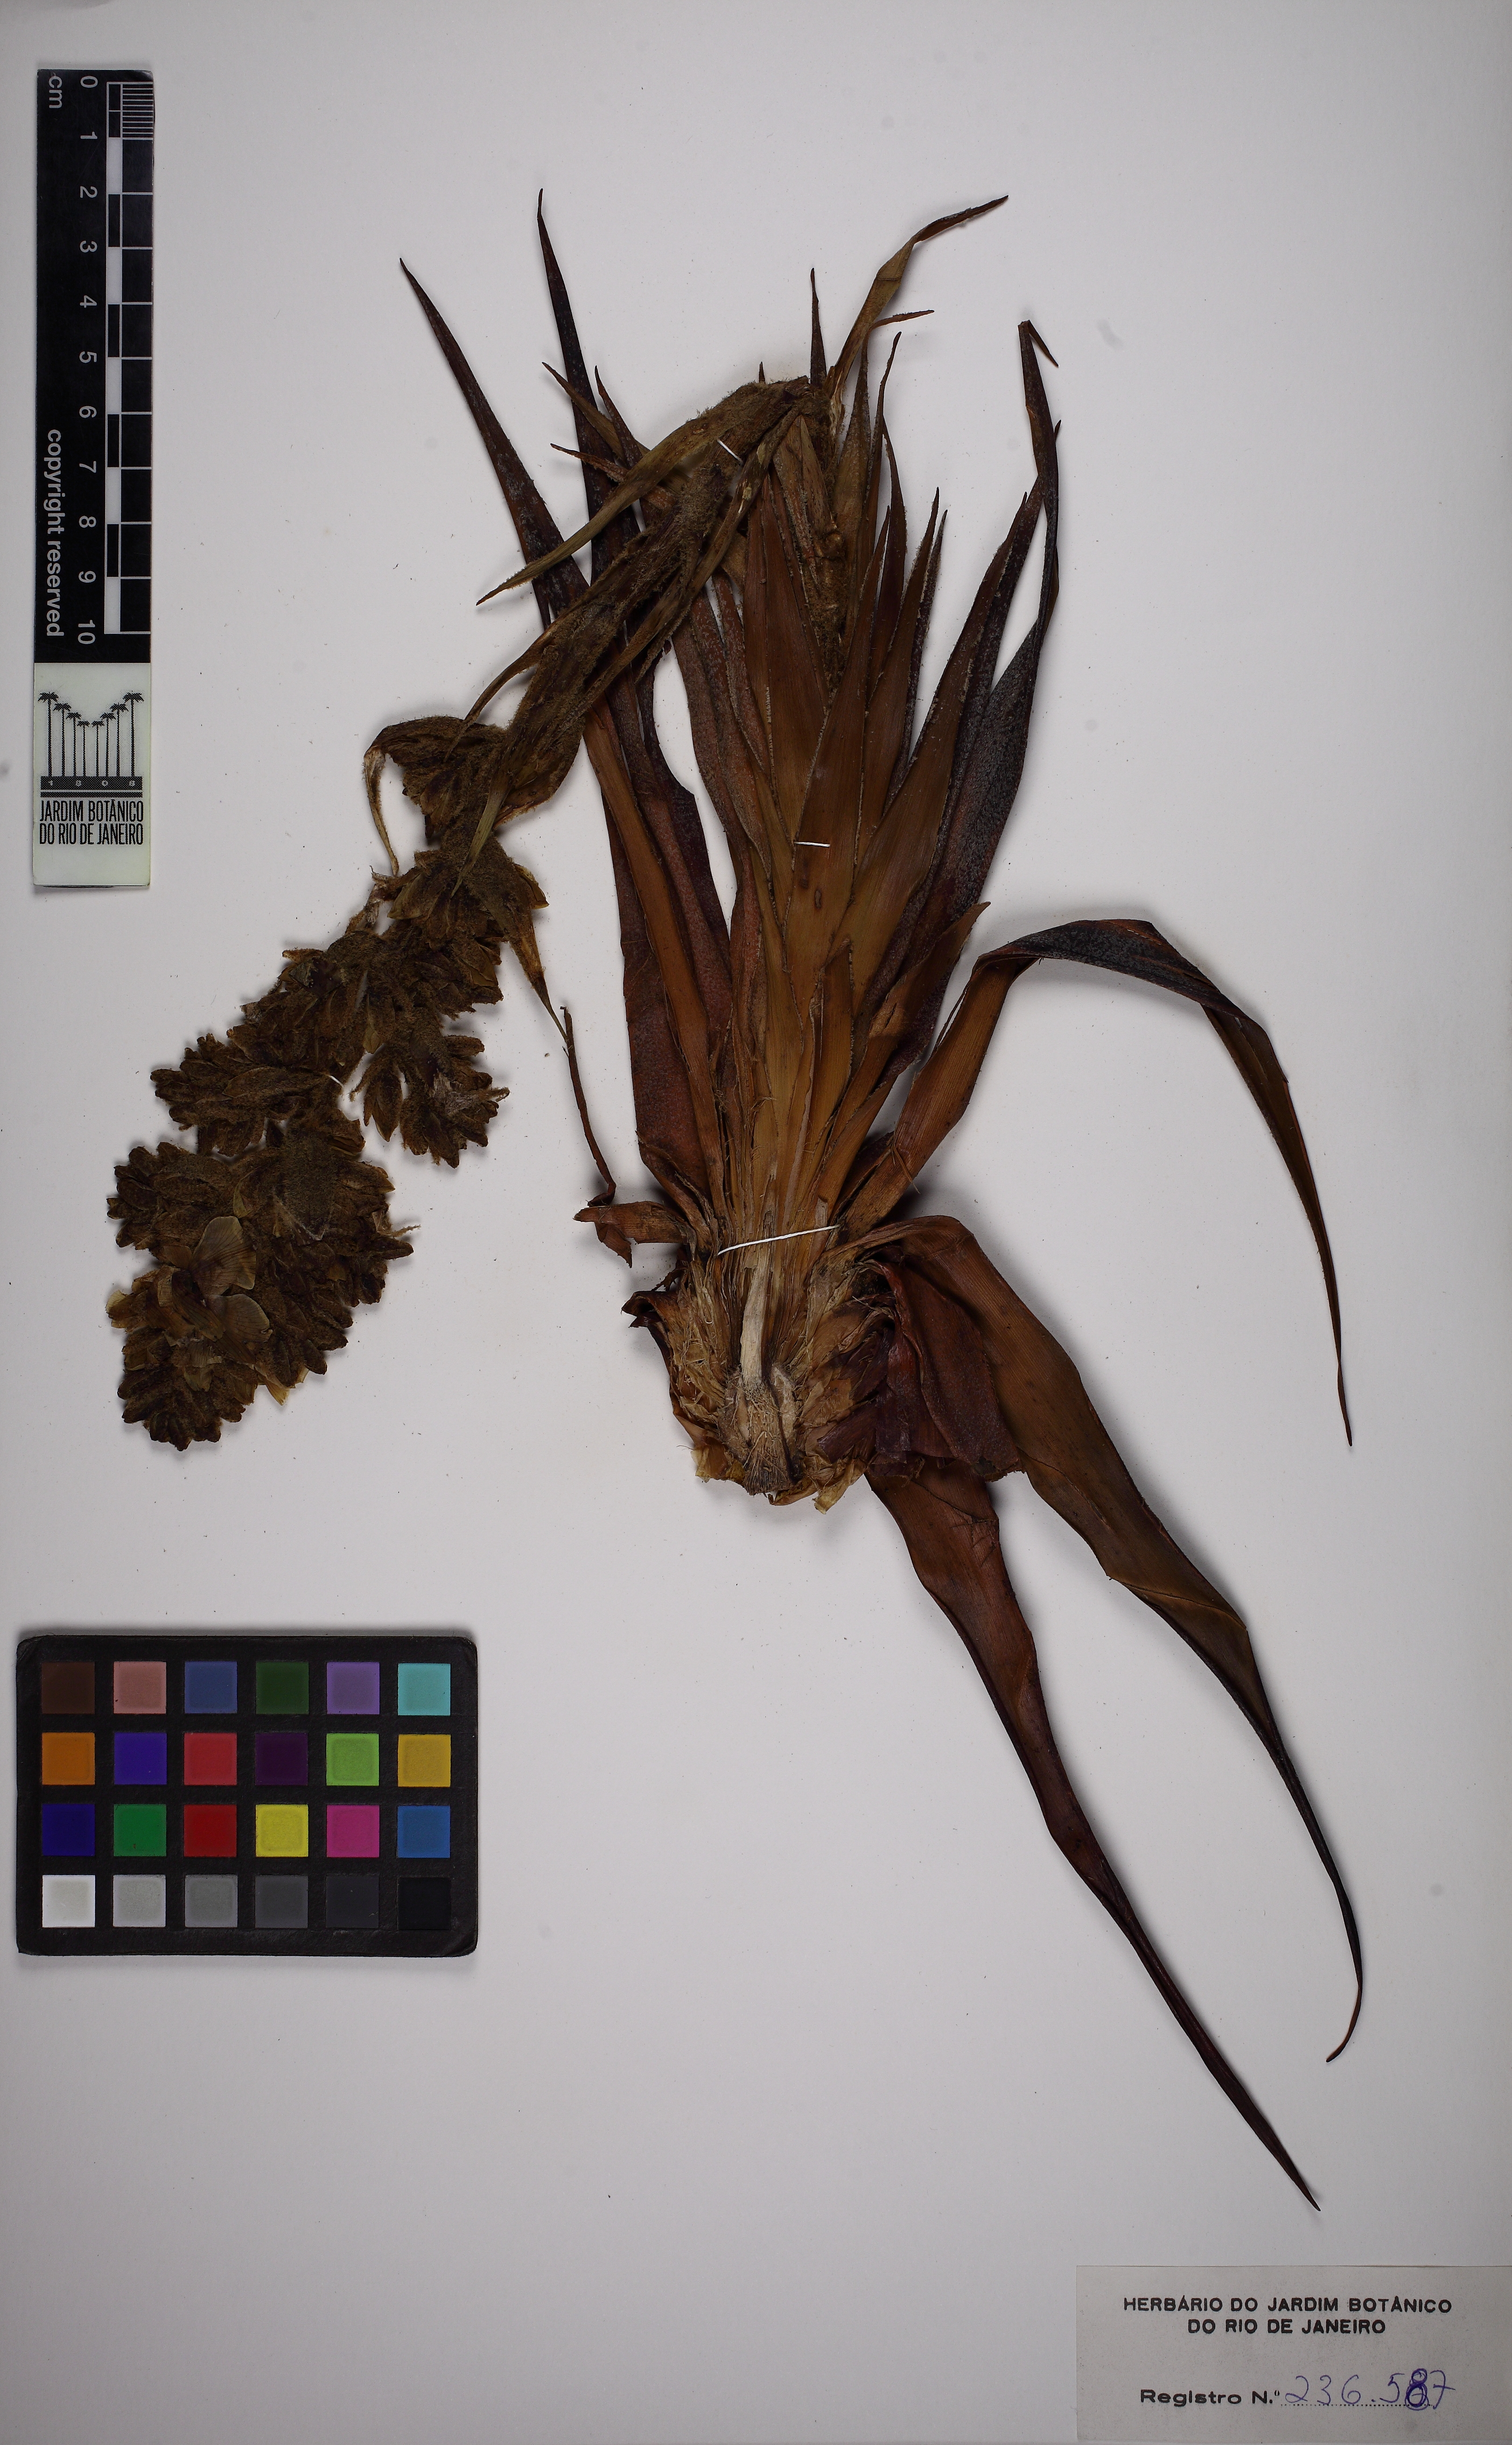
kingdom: Plantae
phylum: Tracheophyta
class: Liliopsida
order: Poales
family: Bromeliaceae
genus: Lindmania
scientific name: Lindmania maguirei
